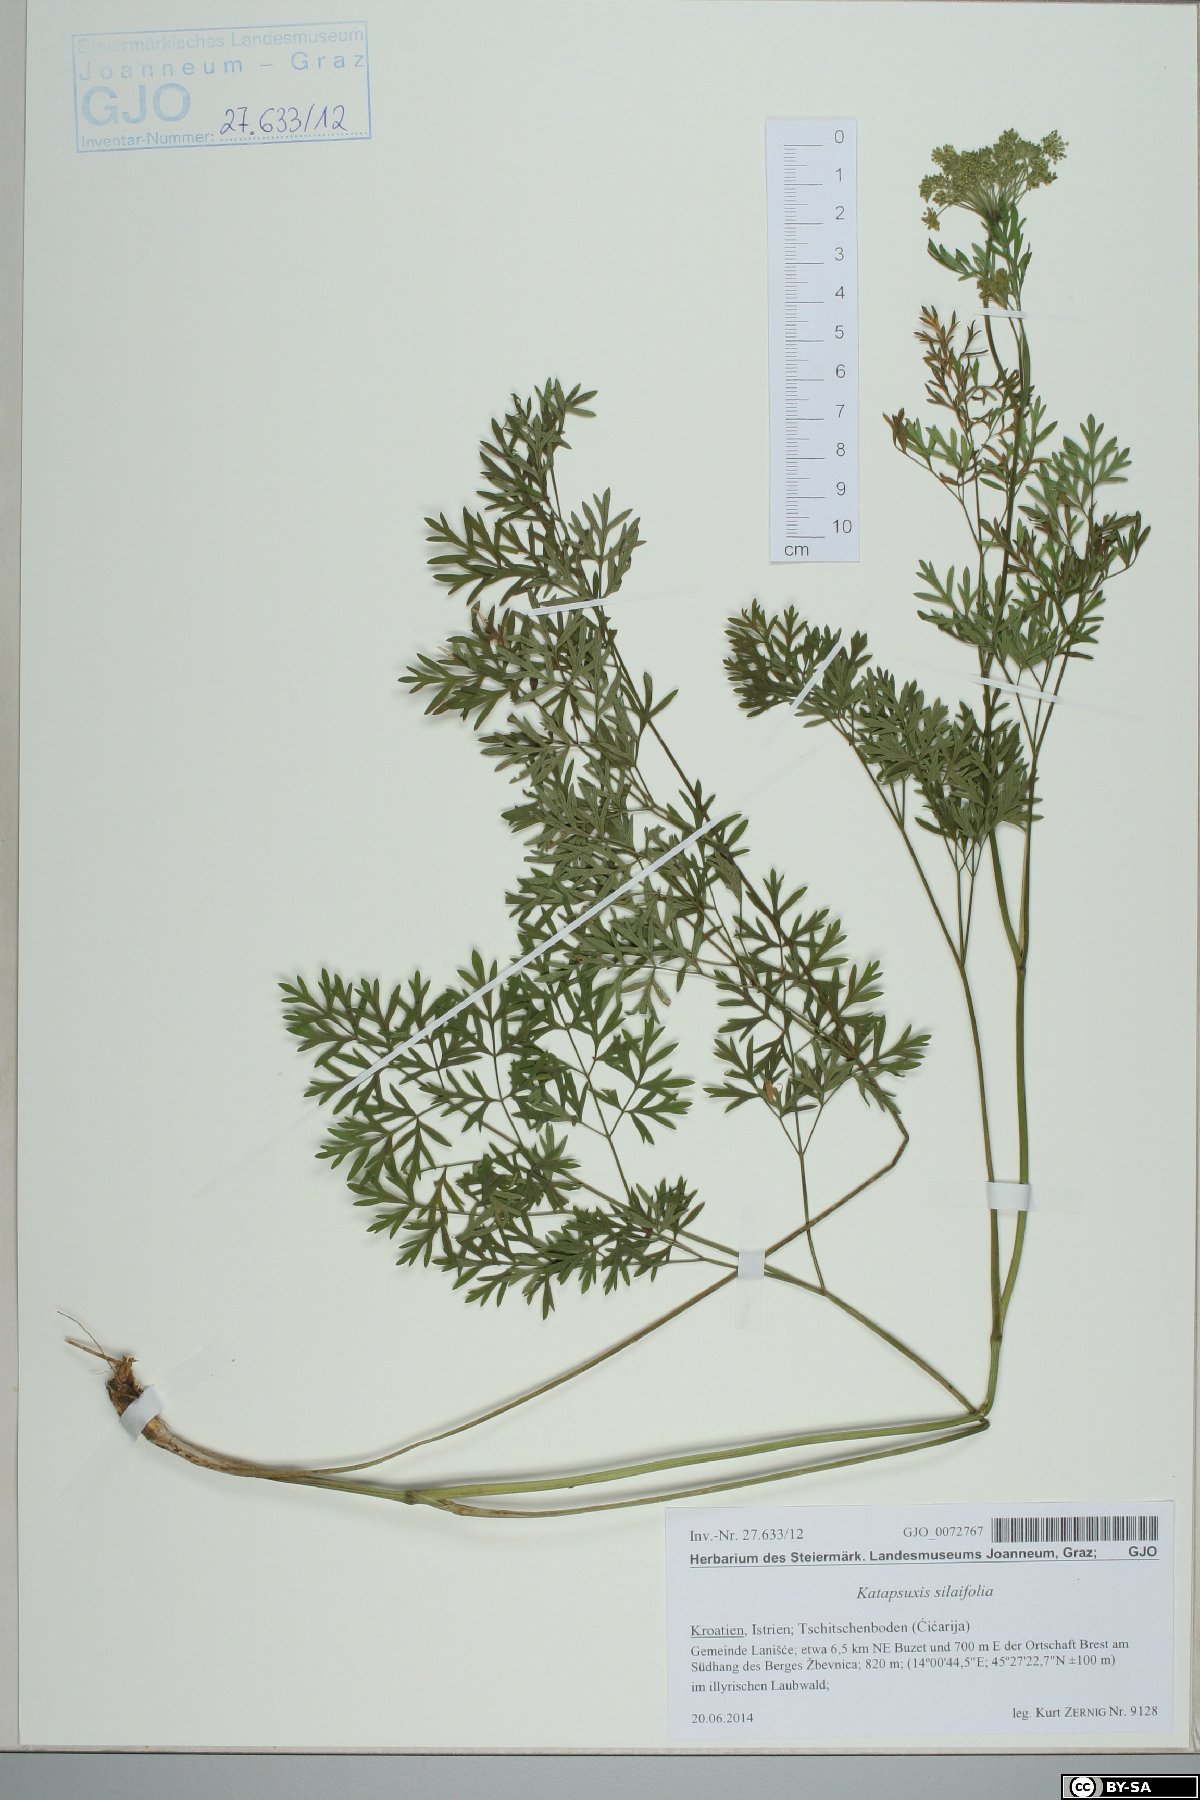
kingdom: Plantae
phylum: Tracheophyta
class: Magnoliopsida
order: Apiales
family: Apiaceae
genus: Katapsuxis
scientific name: Katapsuxis silaifolia
